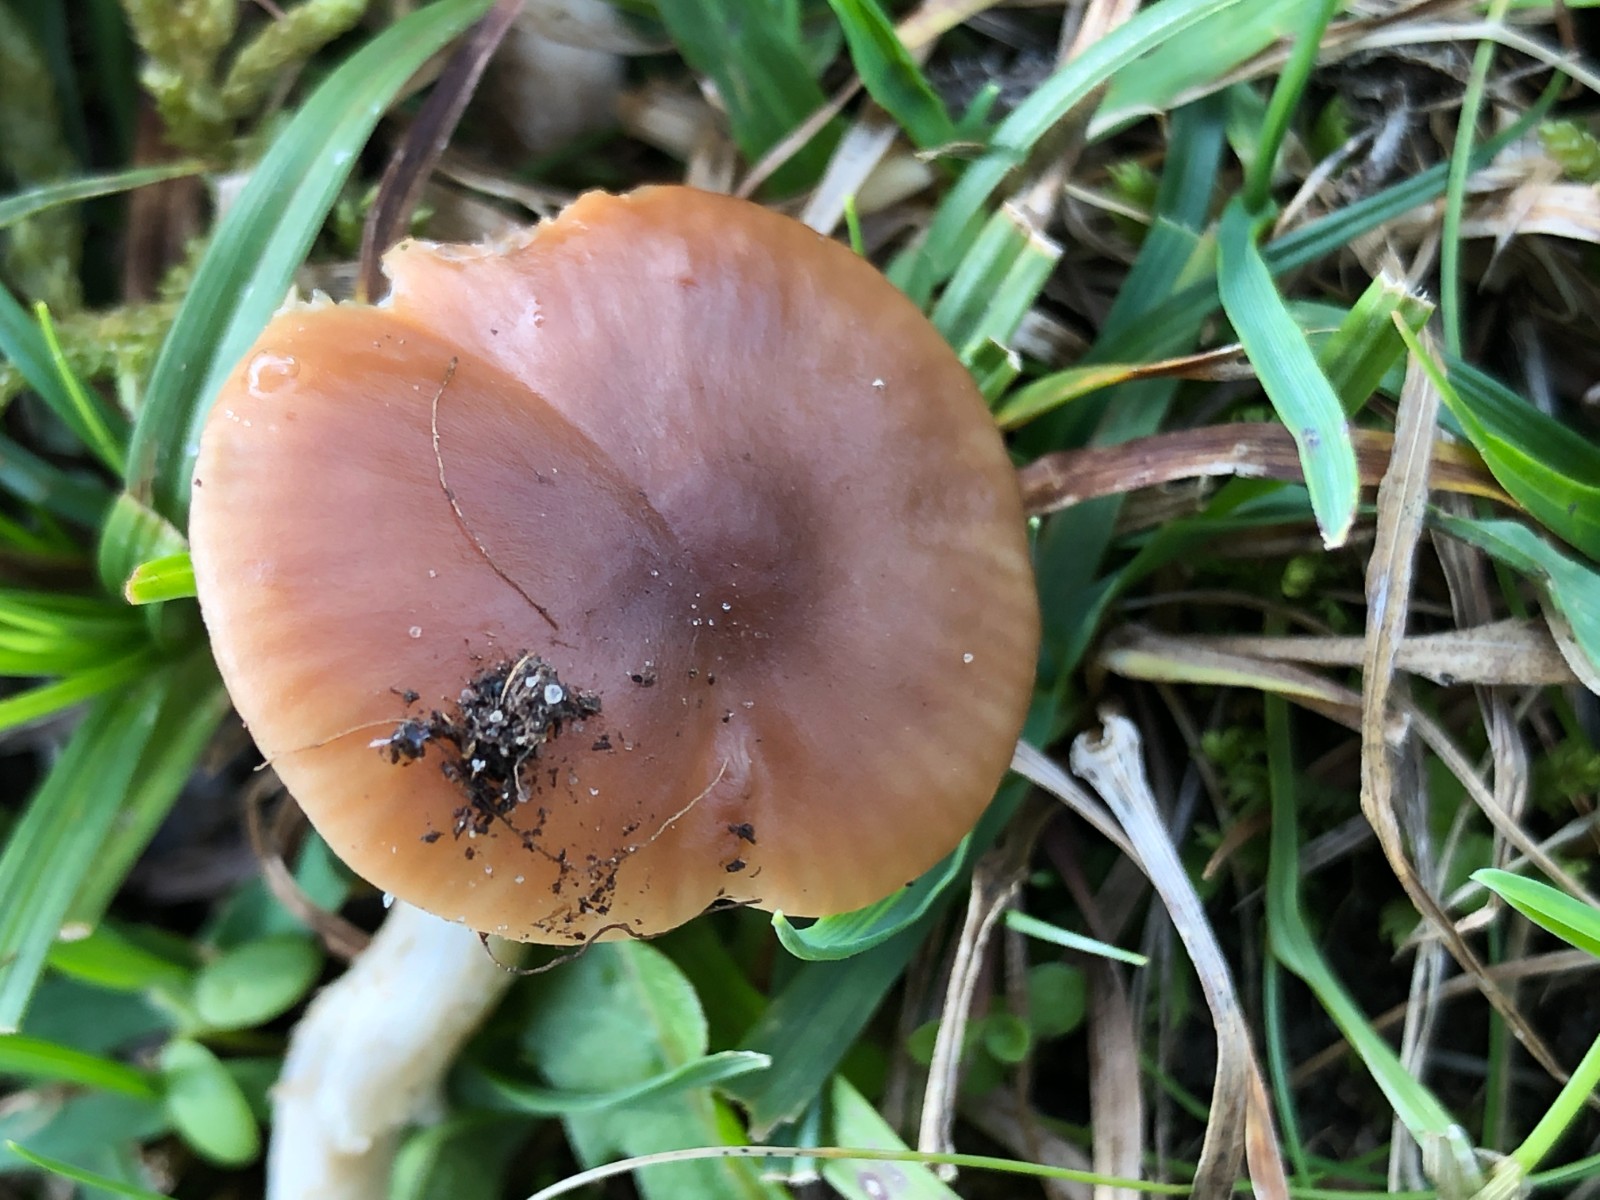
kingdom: Fungi
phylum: Basidiomycota
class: Agaricomycetes
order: Agaricales
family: Hygrophoraceae
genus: Cuphophyllus
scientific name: Cuphophyllus colemannianus
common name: rødbrun vokshat
